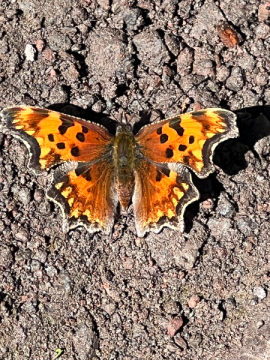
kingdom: Animalia
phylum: Arthropoda
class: Insecta
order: Lepidoptera
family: Nymphalidae
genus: Polygonia
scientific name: Polygonia oreas
